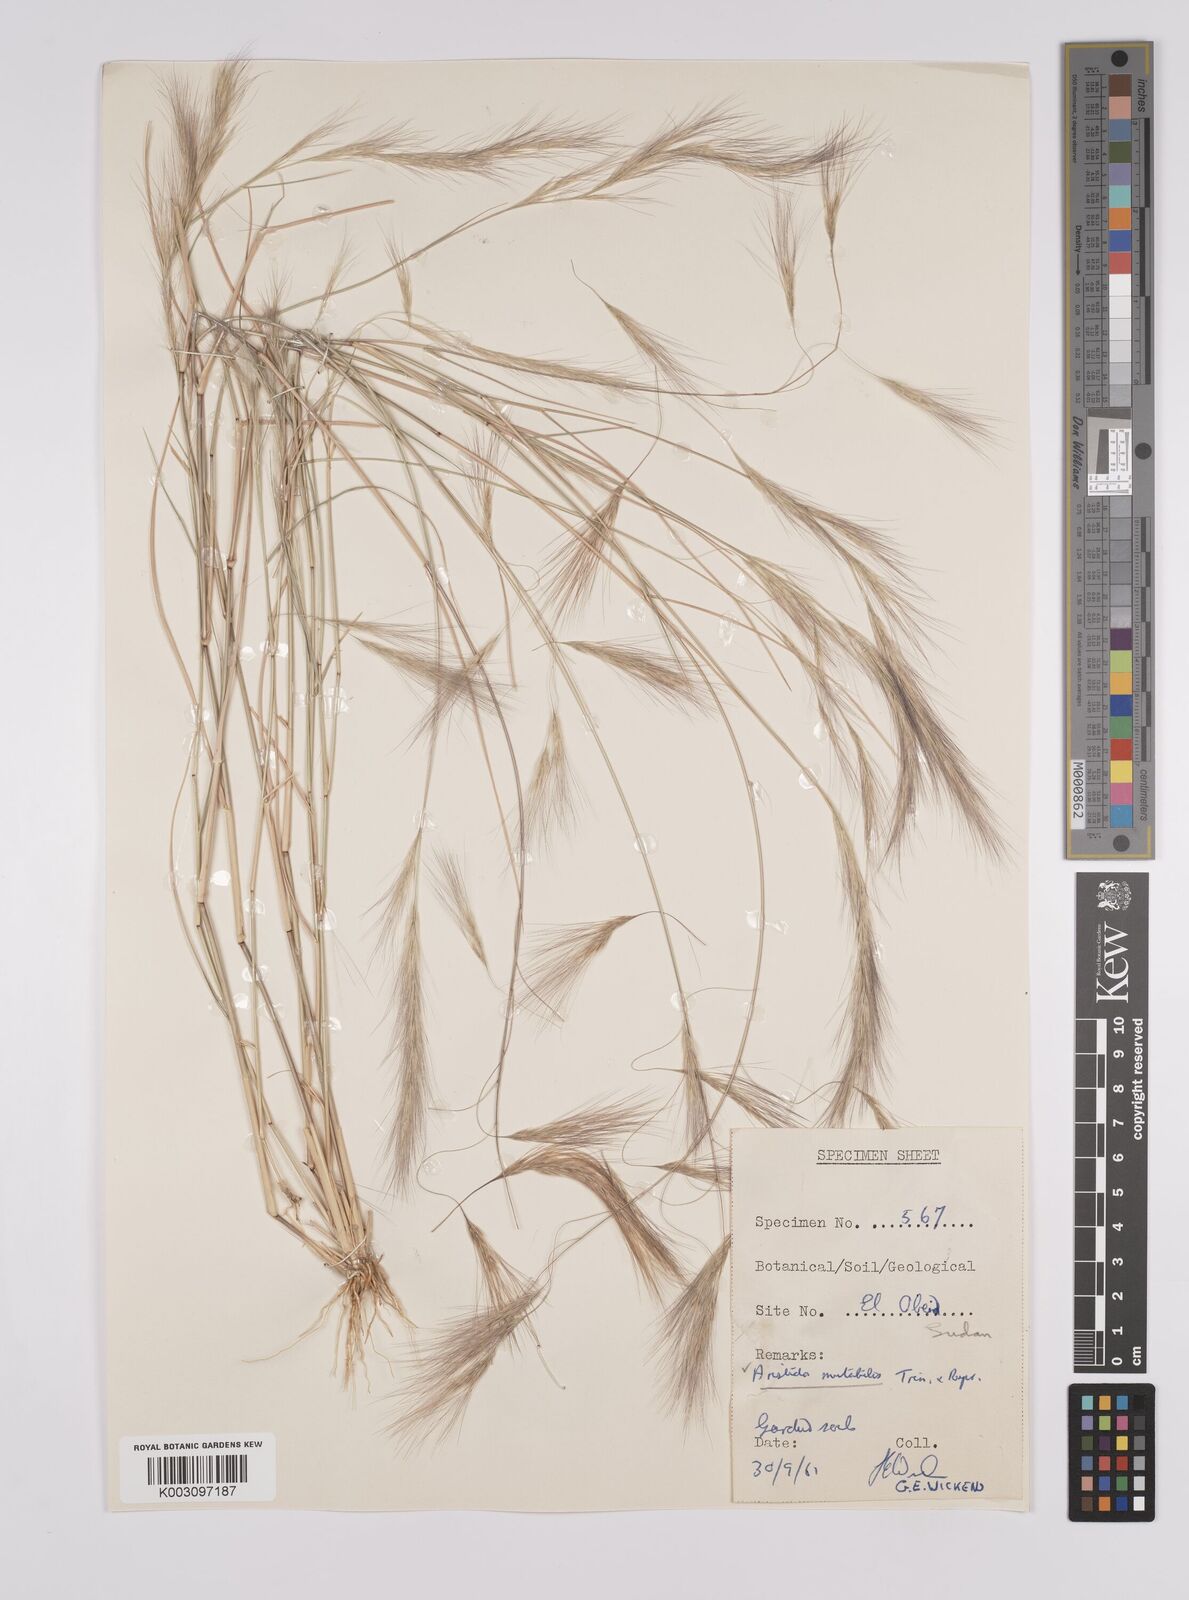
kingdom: Plantae
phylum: Tracheophyta
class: Liliopsida
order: Poales
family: Poaceae
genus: Aristida
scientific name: Aristida mutabilis
